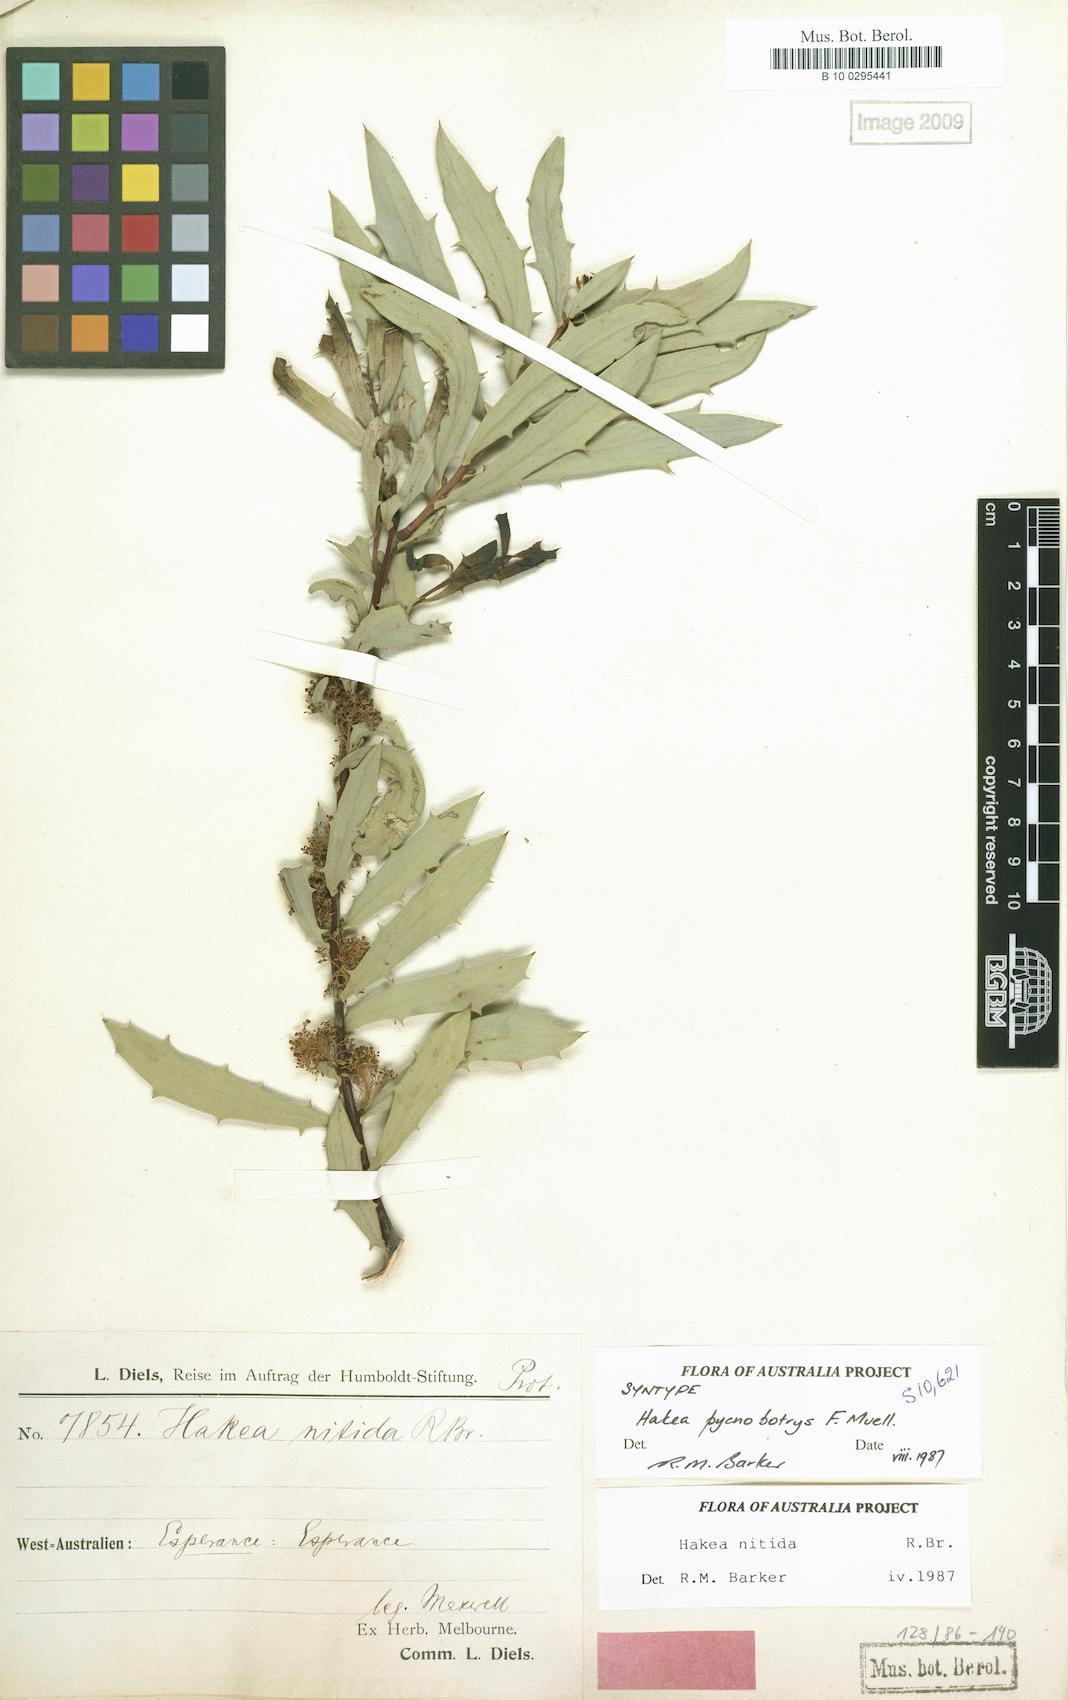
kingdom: Plantae
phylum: Tracheophyta
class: Magnoliopsida
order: Proteales
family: Proteaceae
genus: Hakea
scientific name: Hakea nitida
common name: Frog hakea
